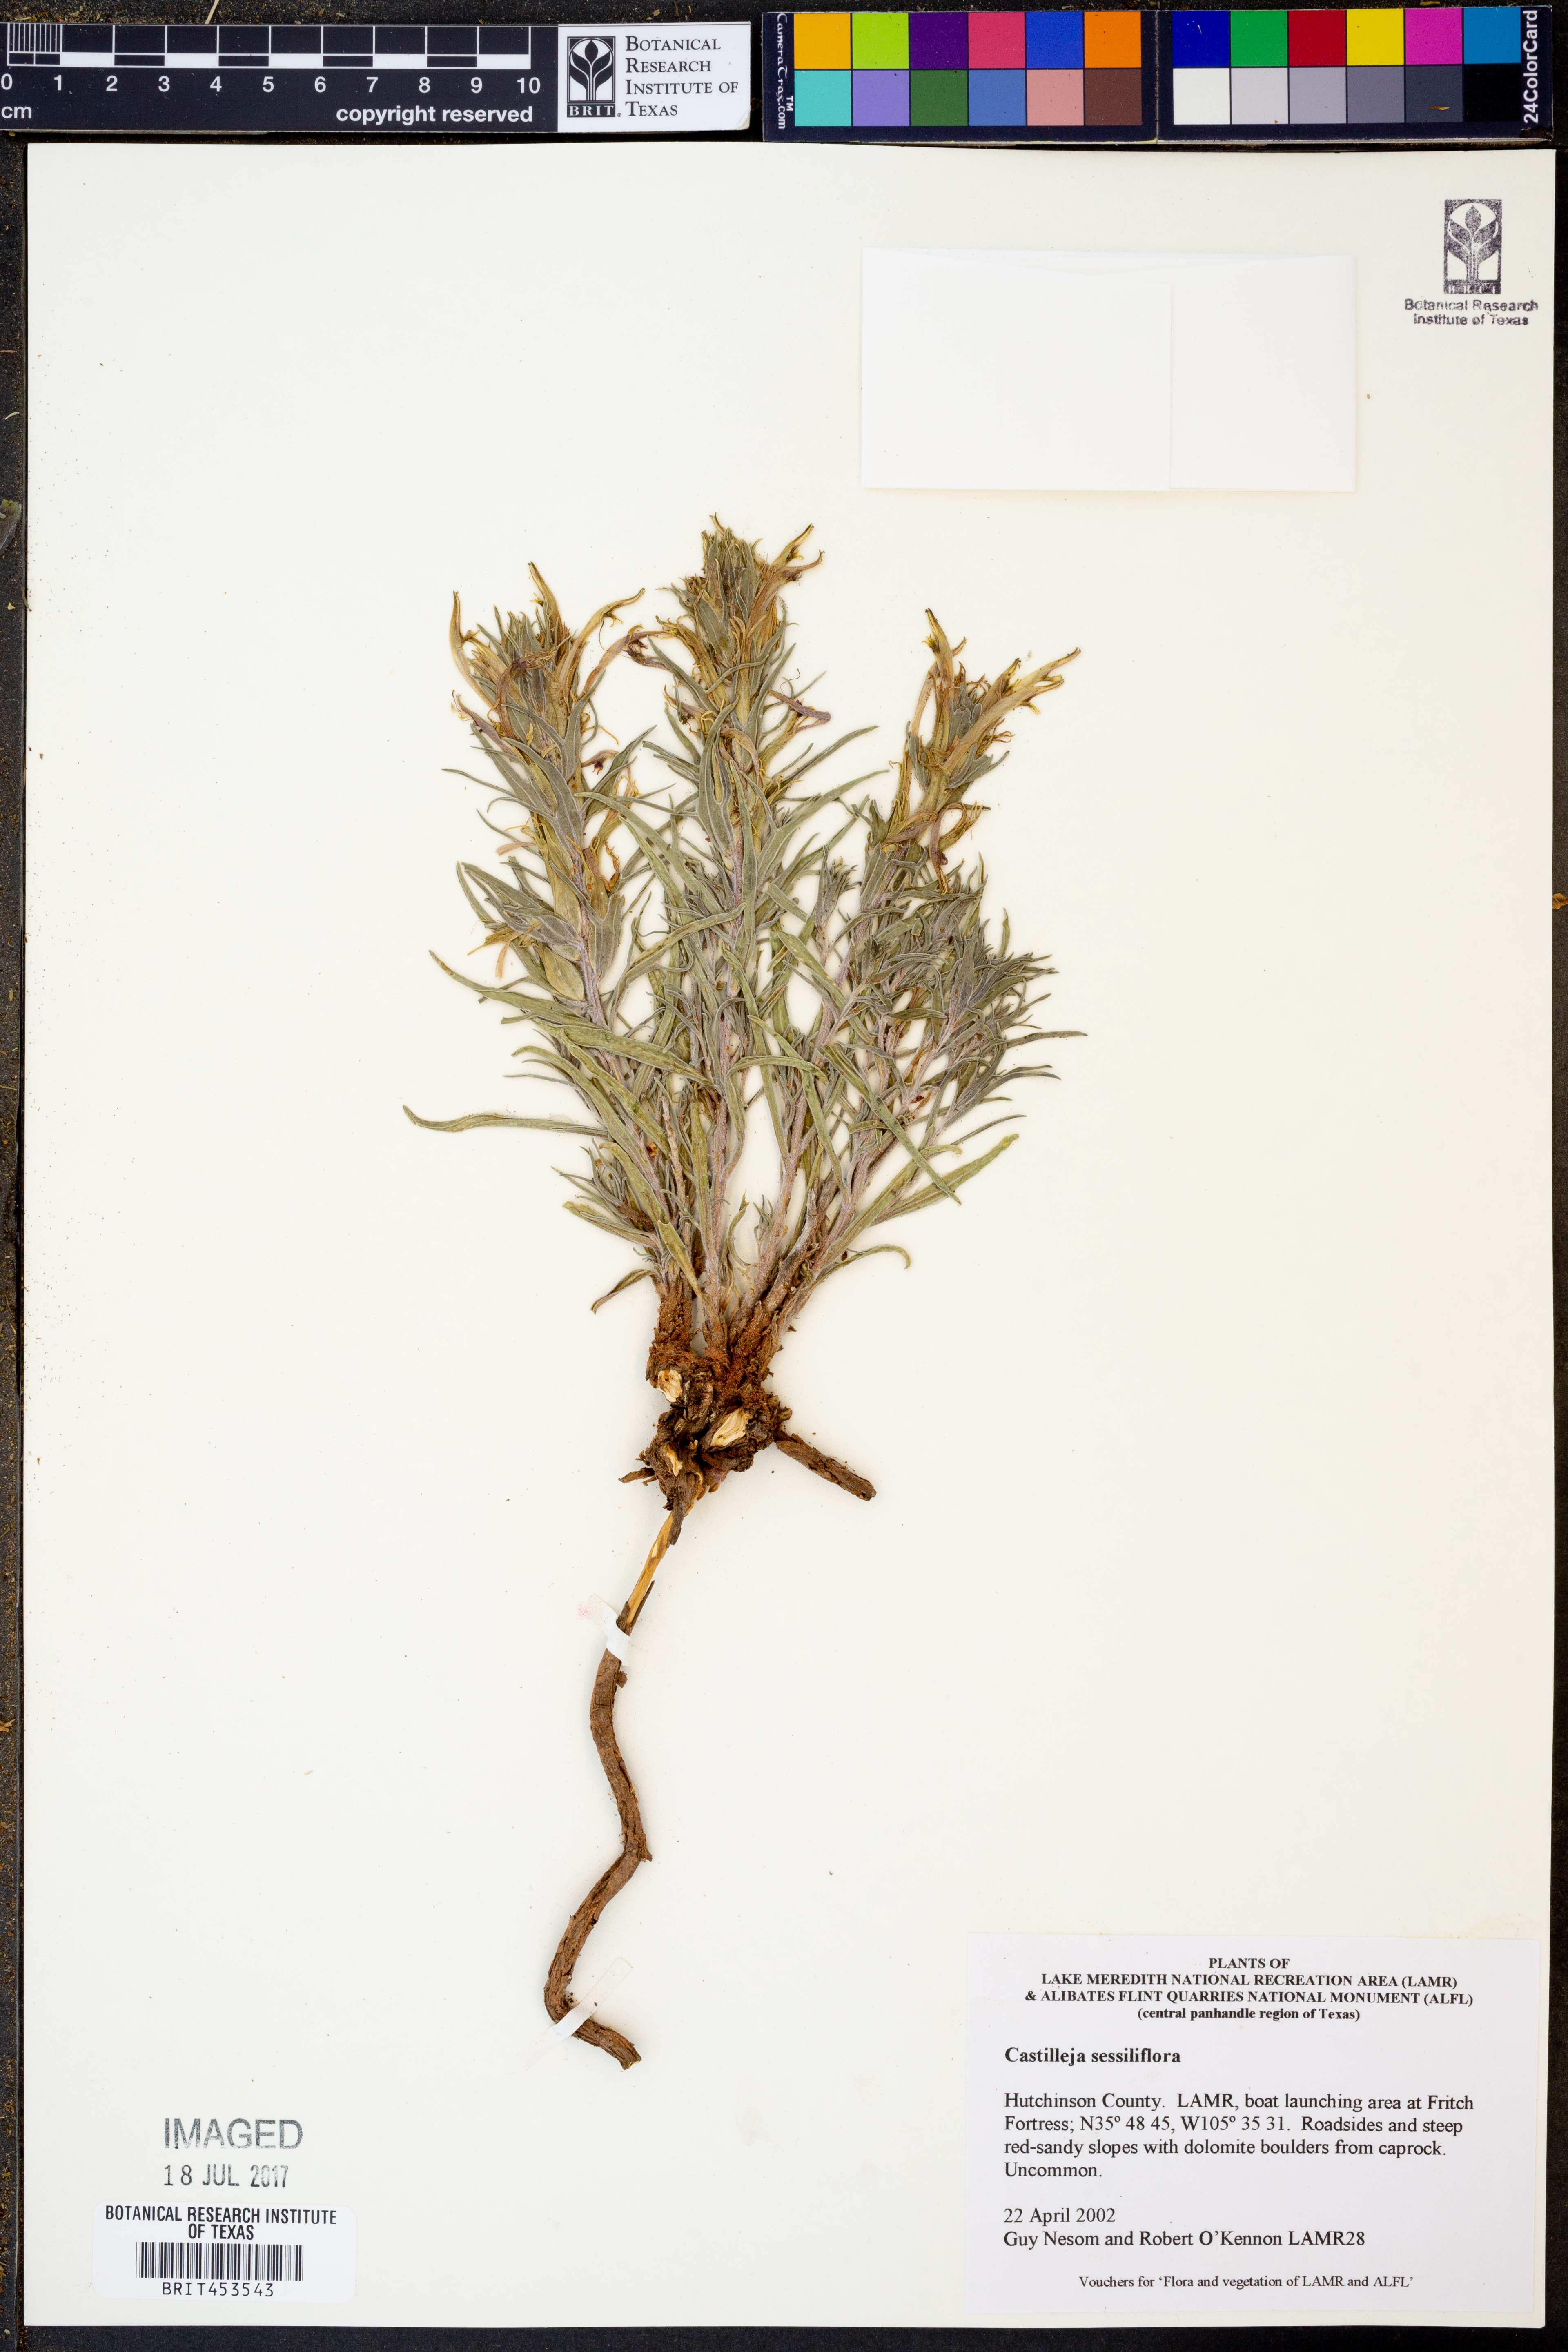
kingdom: Plantae
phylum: Tracheophyta
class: Magnoliopsida
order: Lamiales
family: Orobanchaceae
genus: Castilleja
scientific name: Castilleja sessiliflora
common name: Downy paintbrush
